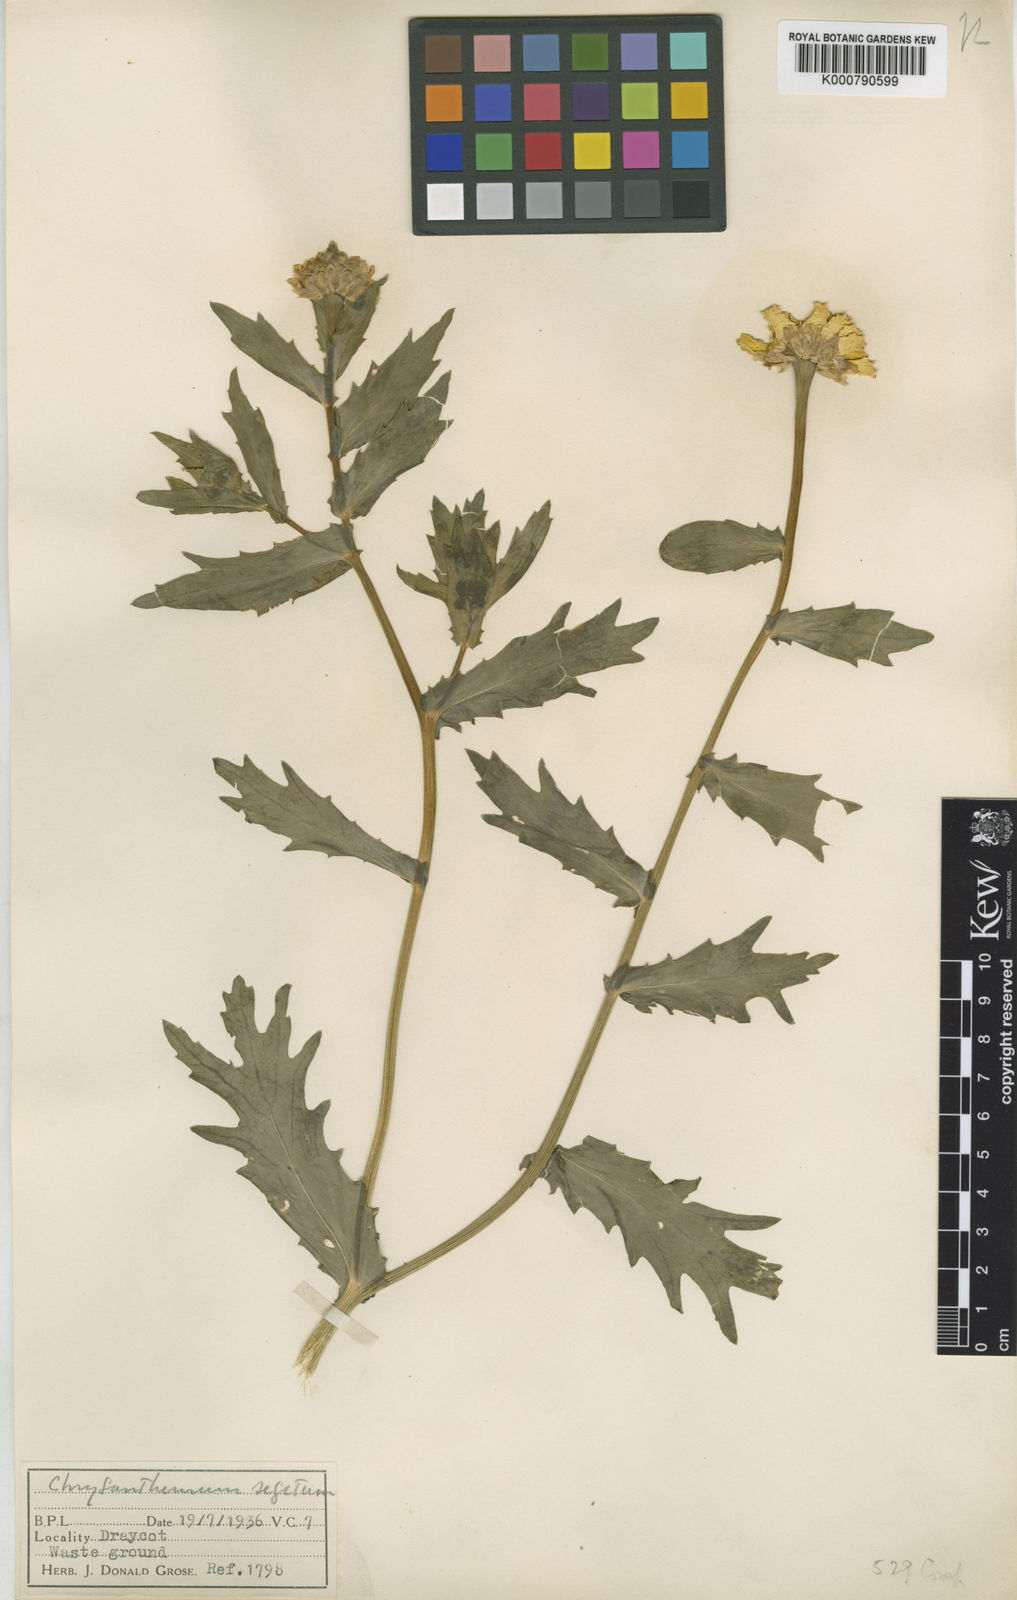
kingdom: Plantae
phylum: Tracheophyta
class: Magnoliopsida
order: Asterales
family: Asteraceae
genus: Glebionis
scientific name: Glebionis
